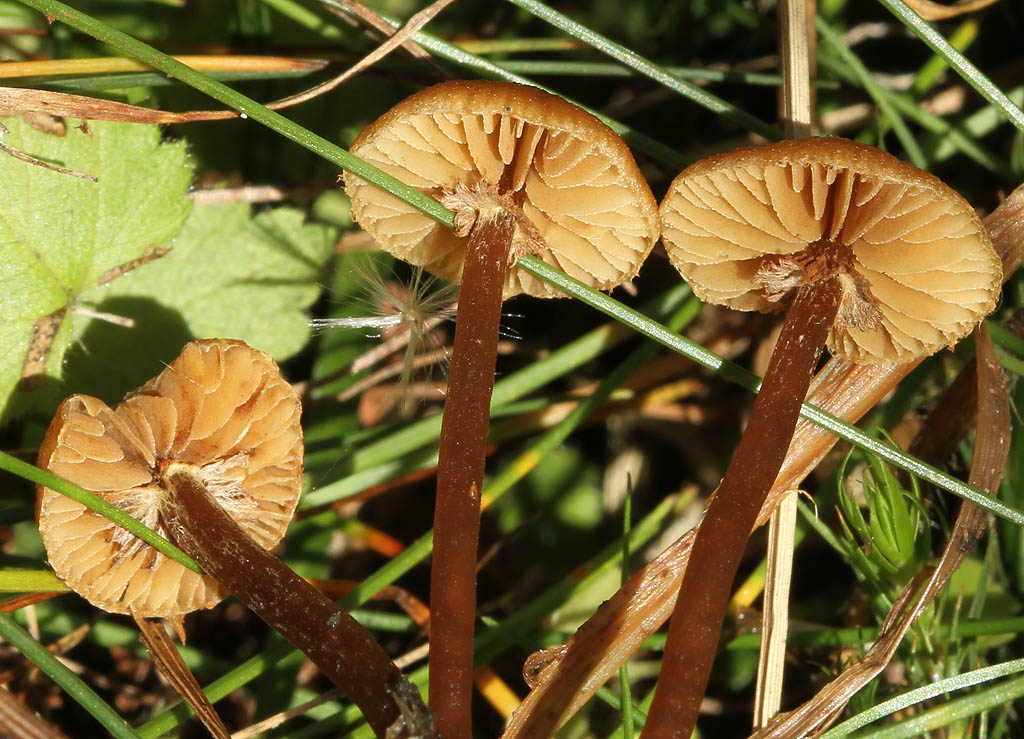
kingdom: Fungi
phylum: Basidiomycota
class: Agaricomycetes
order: Agaricales
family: Hymenogastraceae
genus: Galerina
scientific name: Galerina jaapii
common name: hvidbæltet hjelmhat
